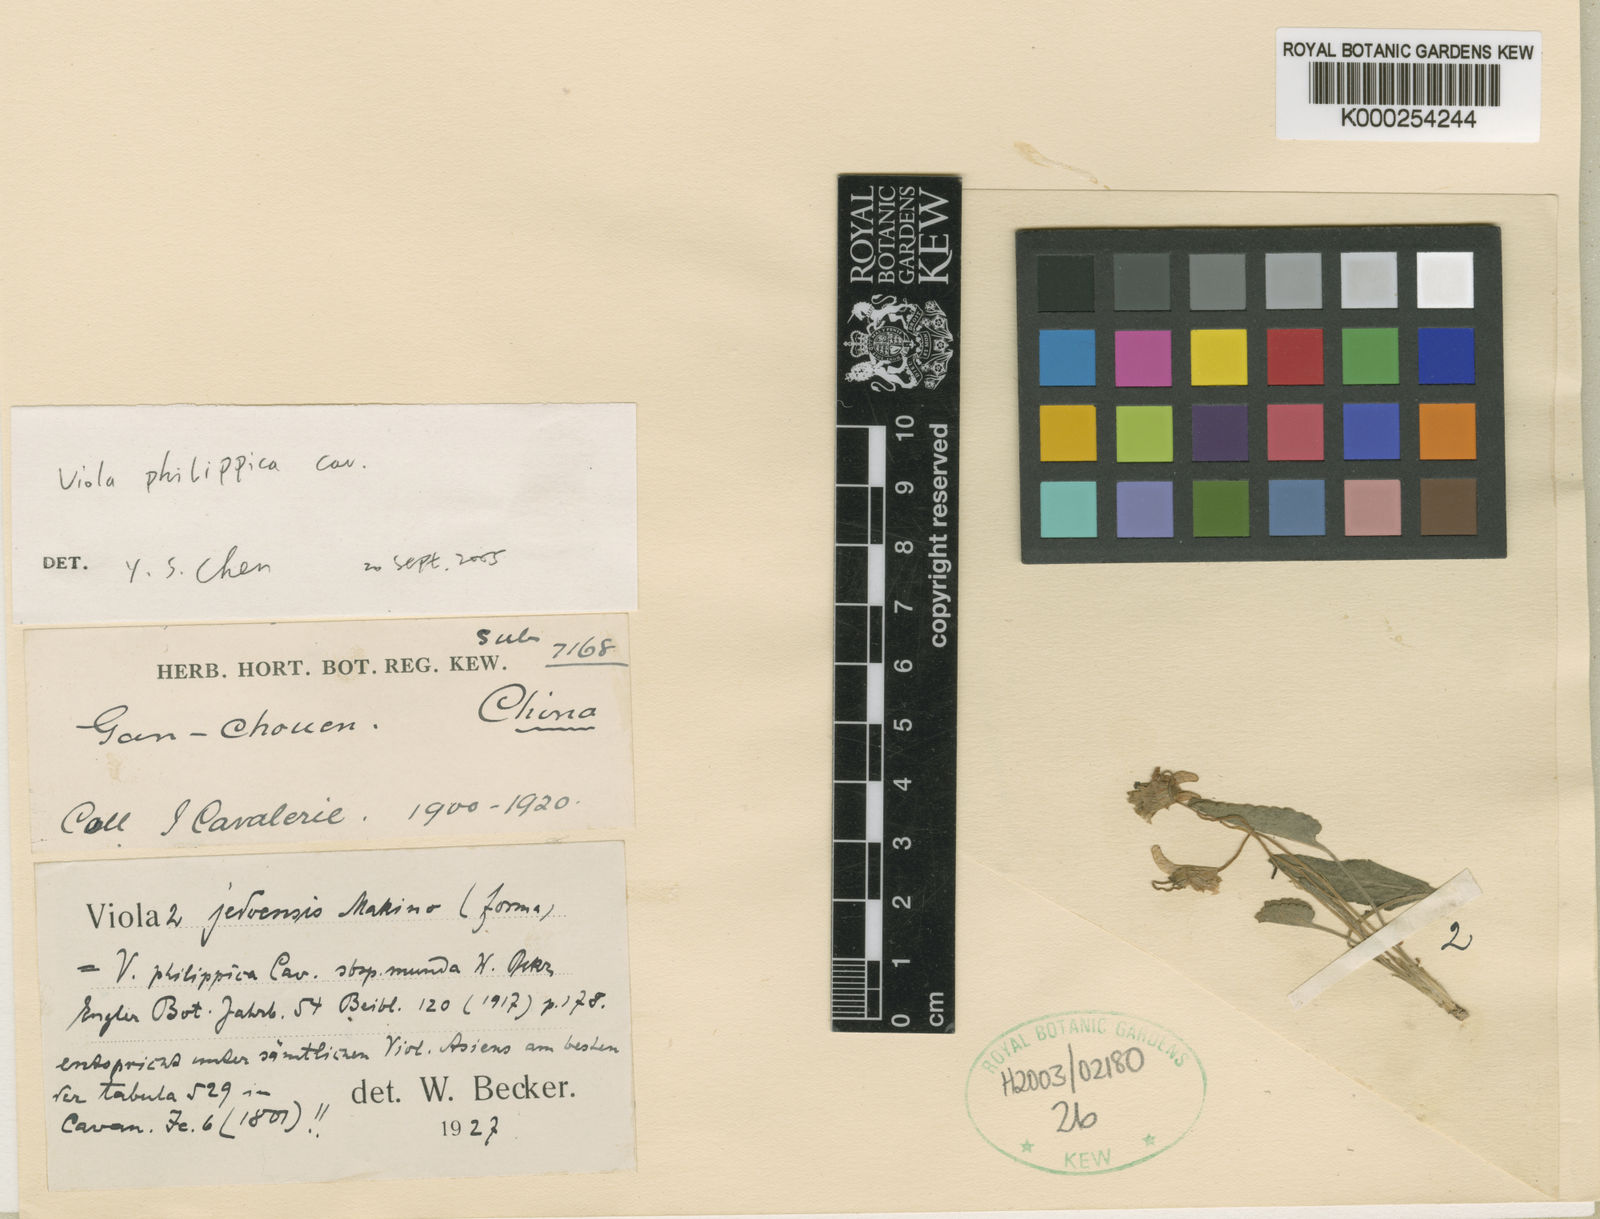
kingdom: Plantae
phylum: Tracheophyta
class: Magnoliopsida
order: Malpighiales
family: Violaceae
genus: Viola
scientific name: Viola philippica
